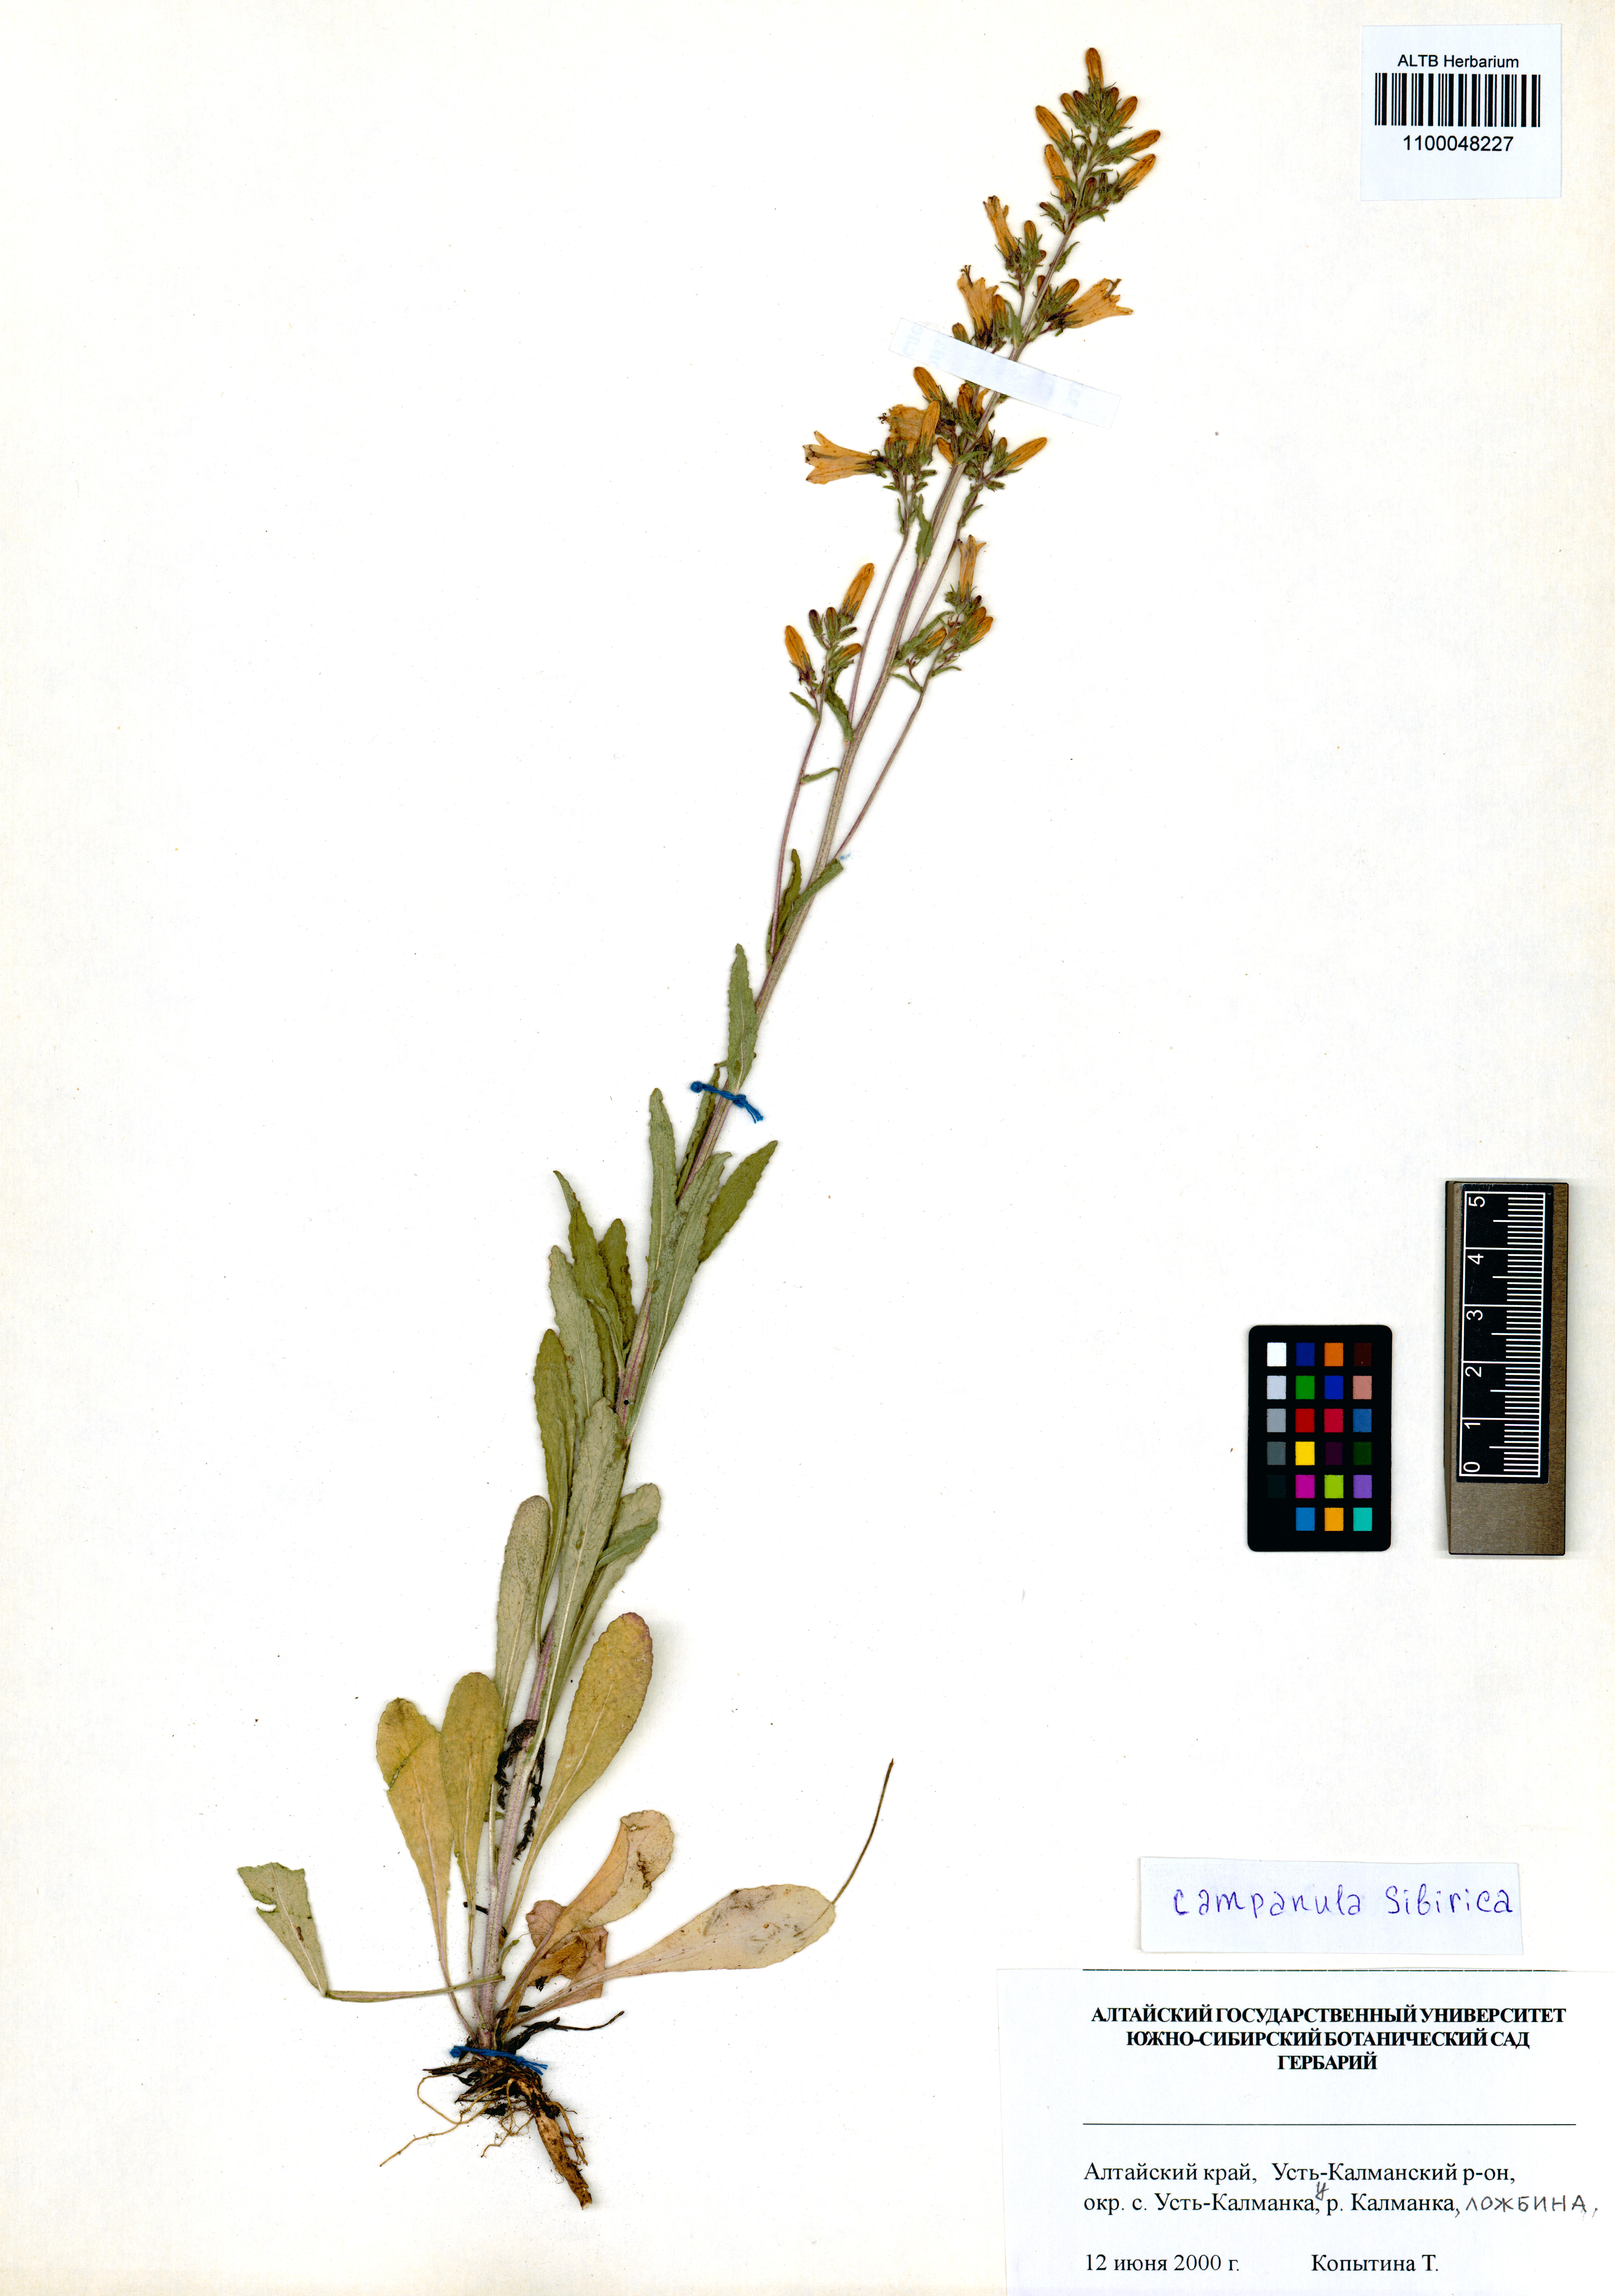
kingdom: Plantae
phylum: Tracheophyta
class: Magnoliopsida
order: Asterales
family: Campanulaceae
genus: Campanula
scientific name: Campanula sibirica
